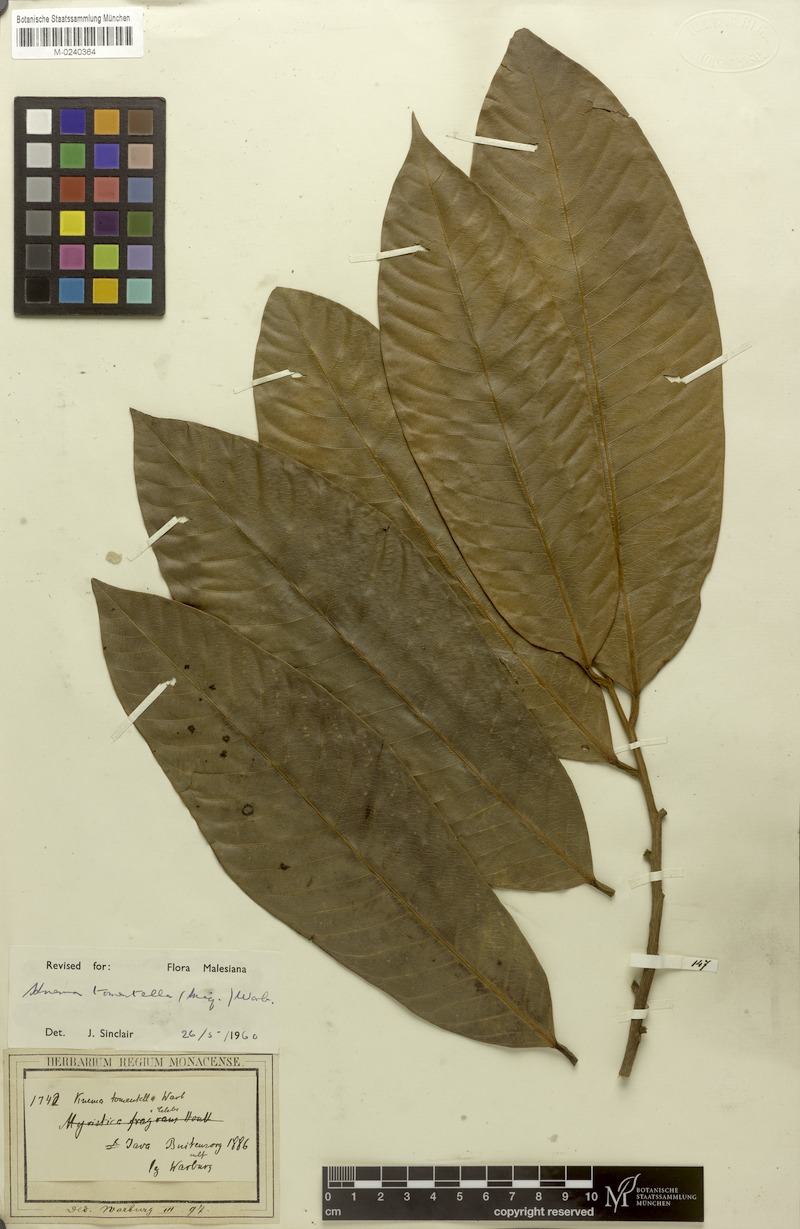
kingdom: Plantae
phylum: Tracheophyta
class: Magnoliopsida
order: Magnoliales
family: Myristicaceae
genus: Knema
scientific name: Knema tomentella
